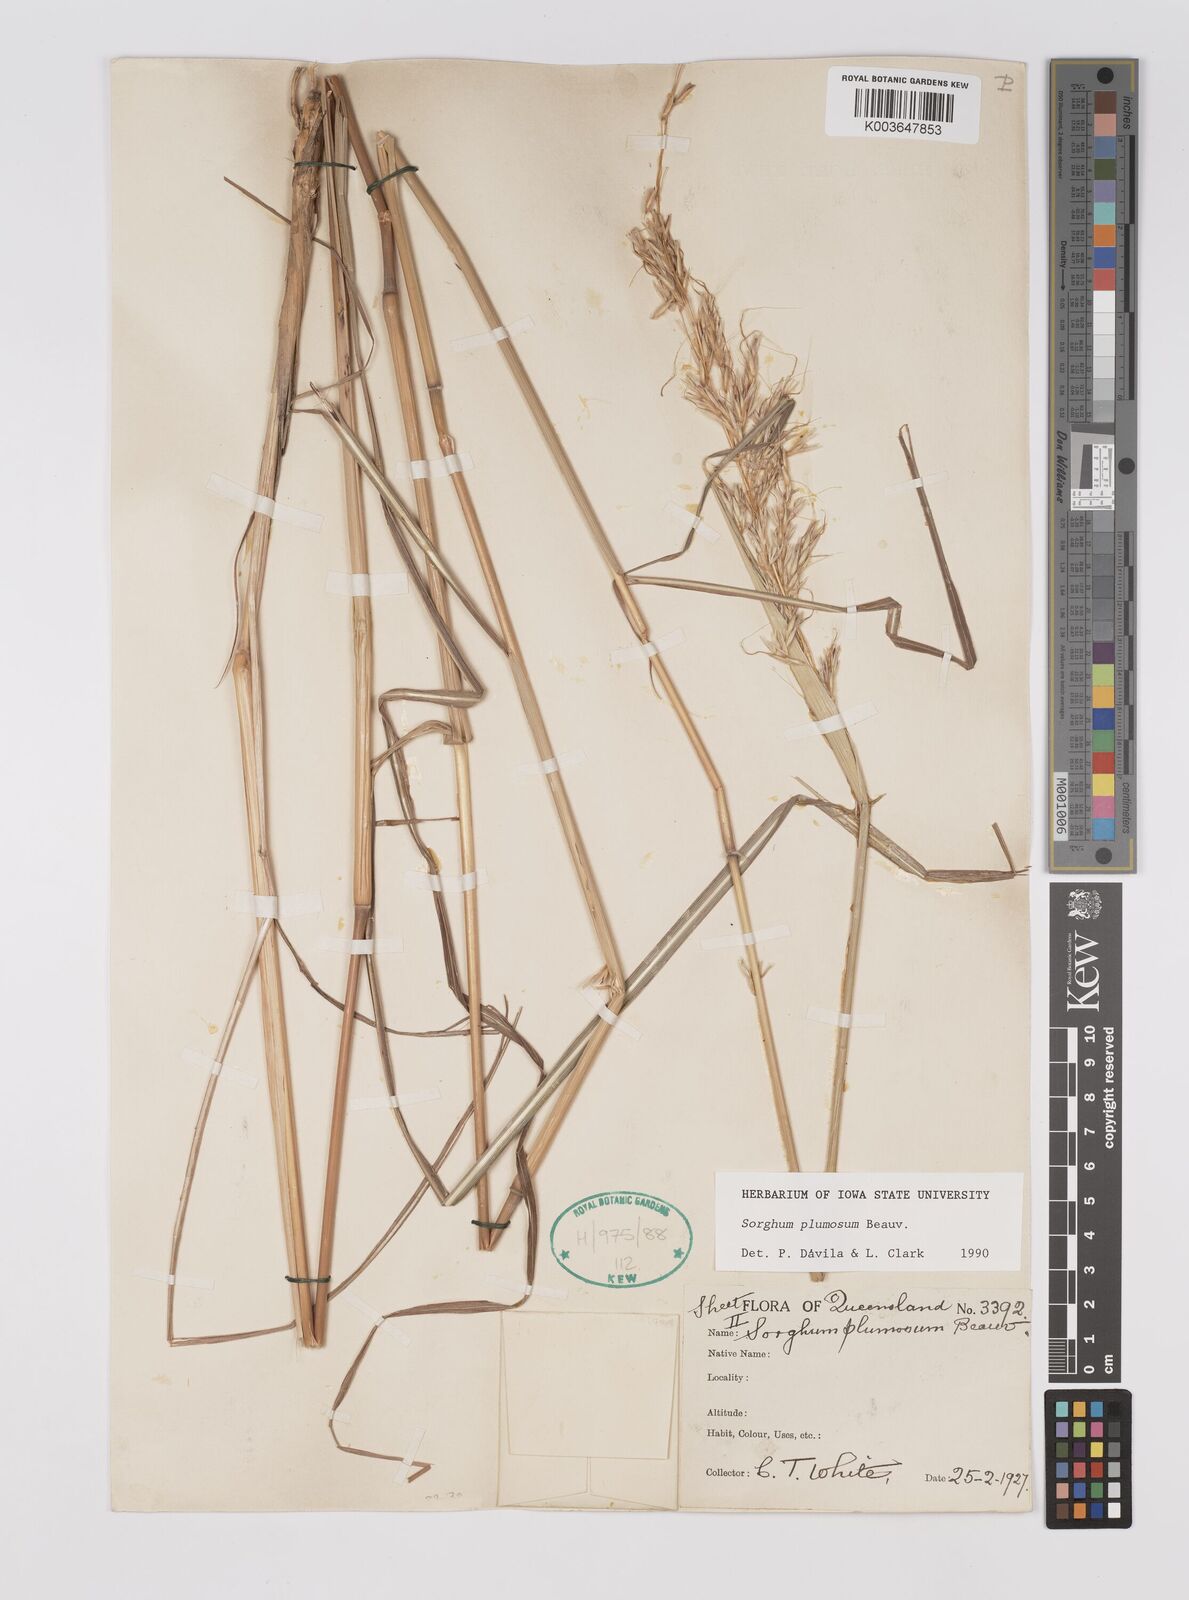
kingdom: Plantae
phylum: Tracheophyta
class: Liliopsida
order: Poales
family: Poaceae
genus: Sarga
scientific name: Sarga plumosa
